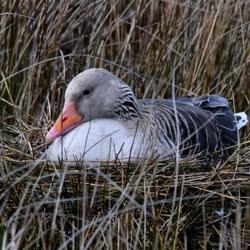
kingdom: Animalia
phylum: Chordata
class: Aves
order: Anseriformes
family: Anatidae
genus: Anser
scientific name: Anser anser
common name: Grågås
